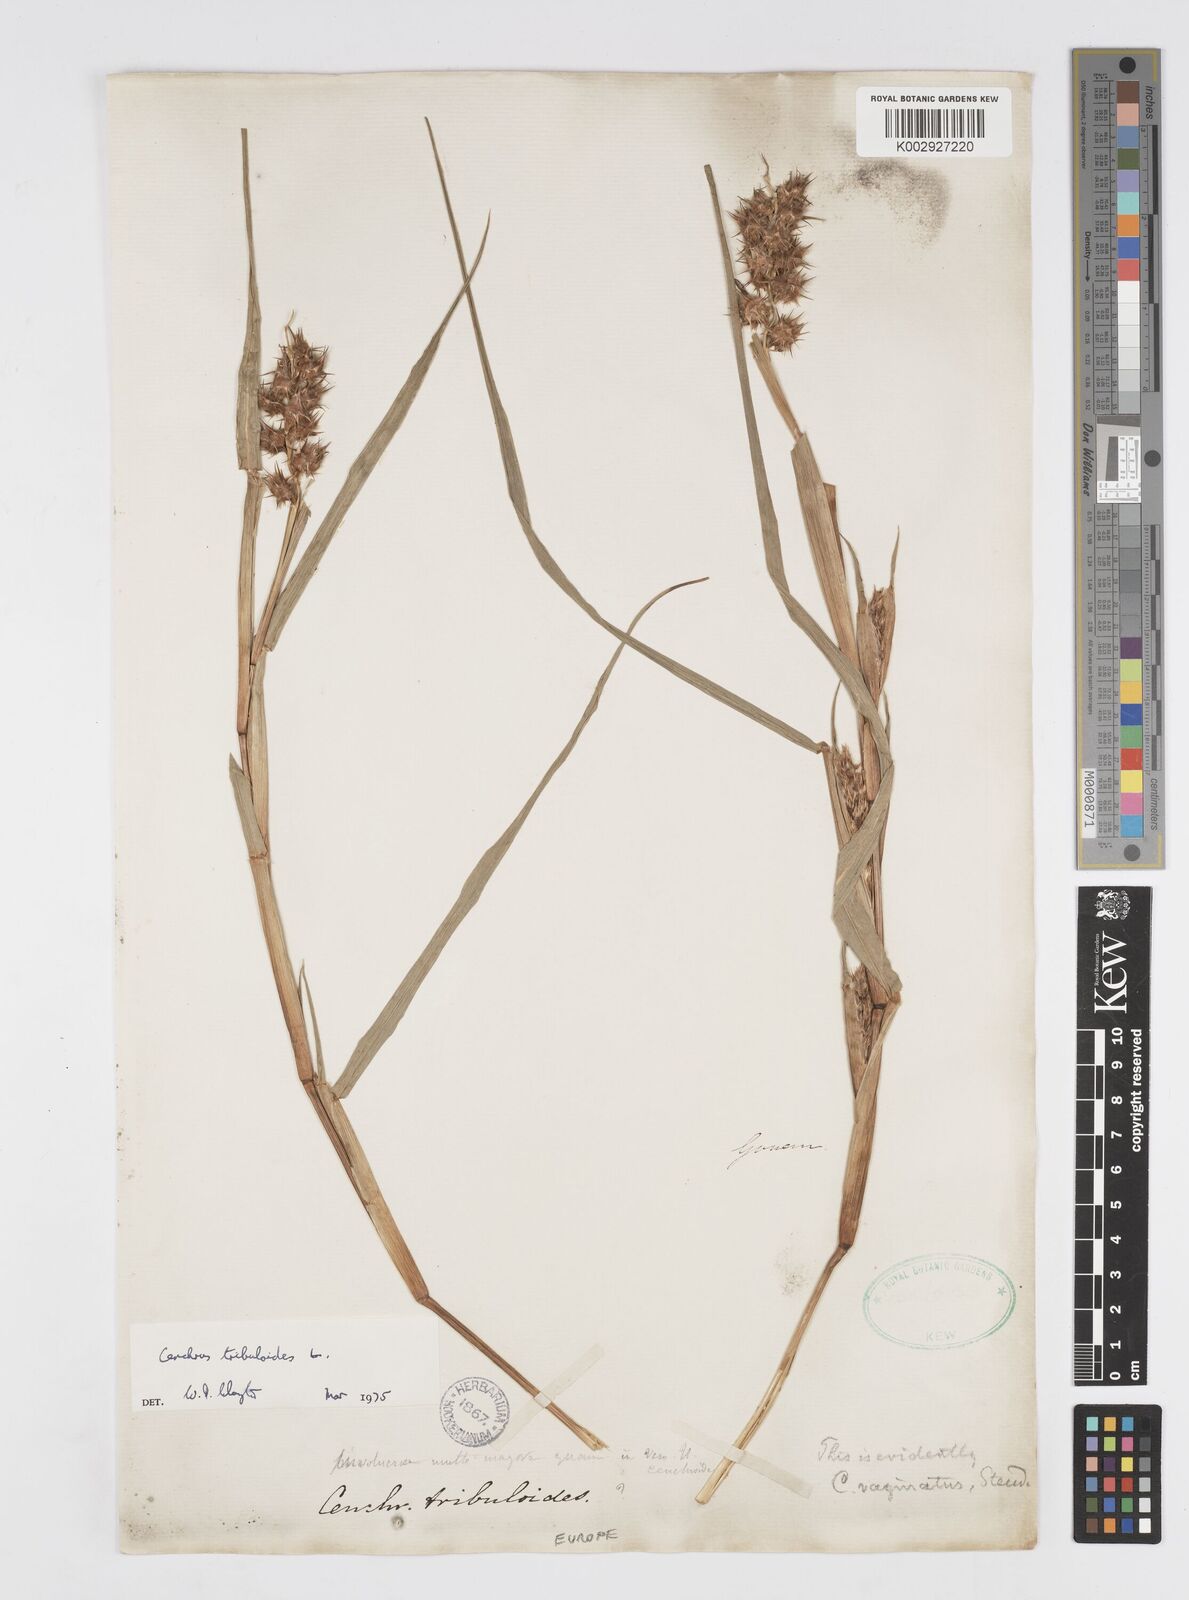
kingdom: Plantae
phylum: Tracheophyta
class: Liliopsida
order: Poales
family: Poaceae
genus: Cenchrus
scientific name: Cenchrus tribuloides
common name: Dune sandbur
